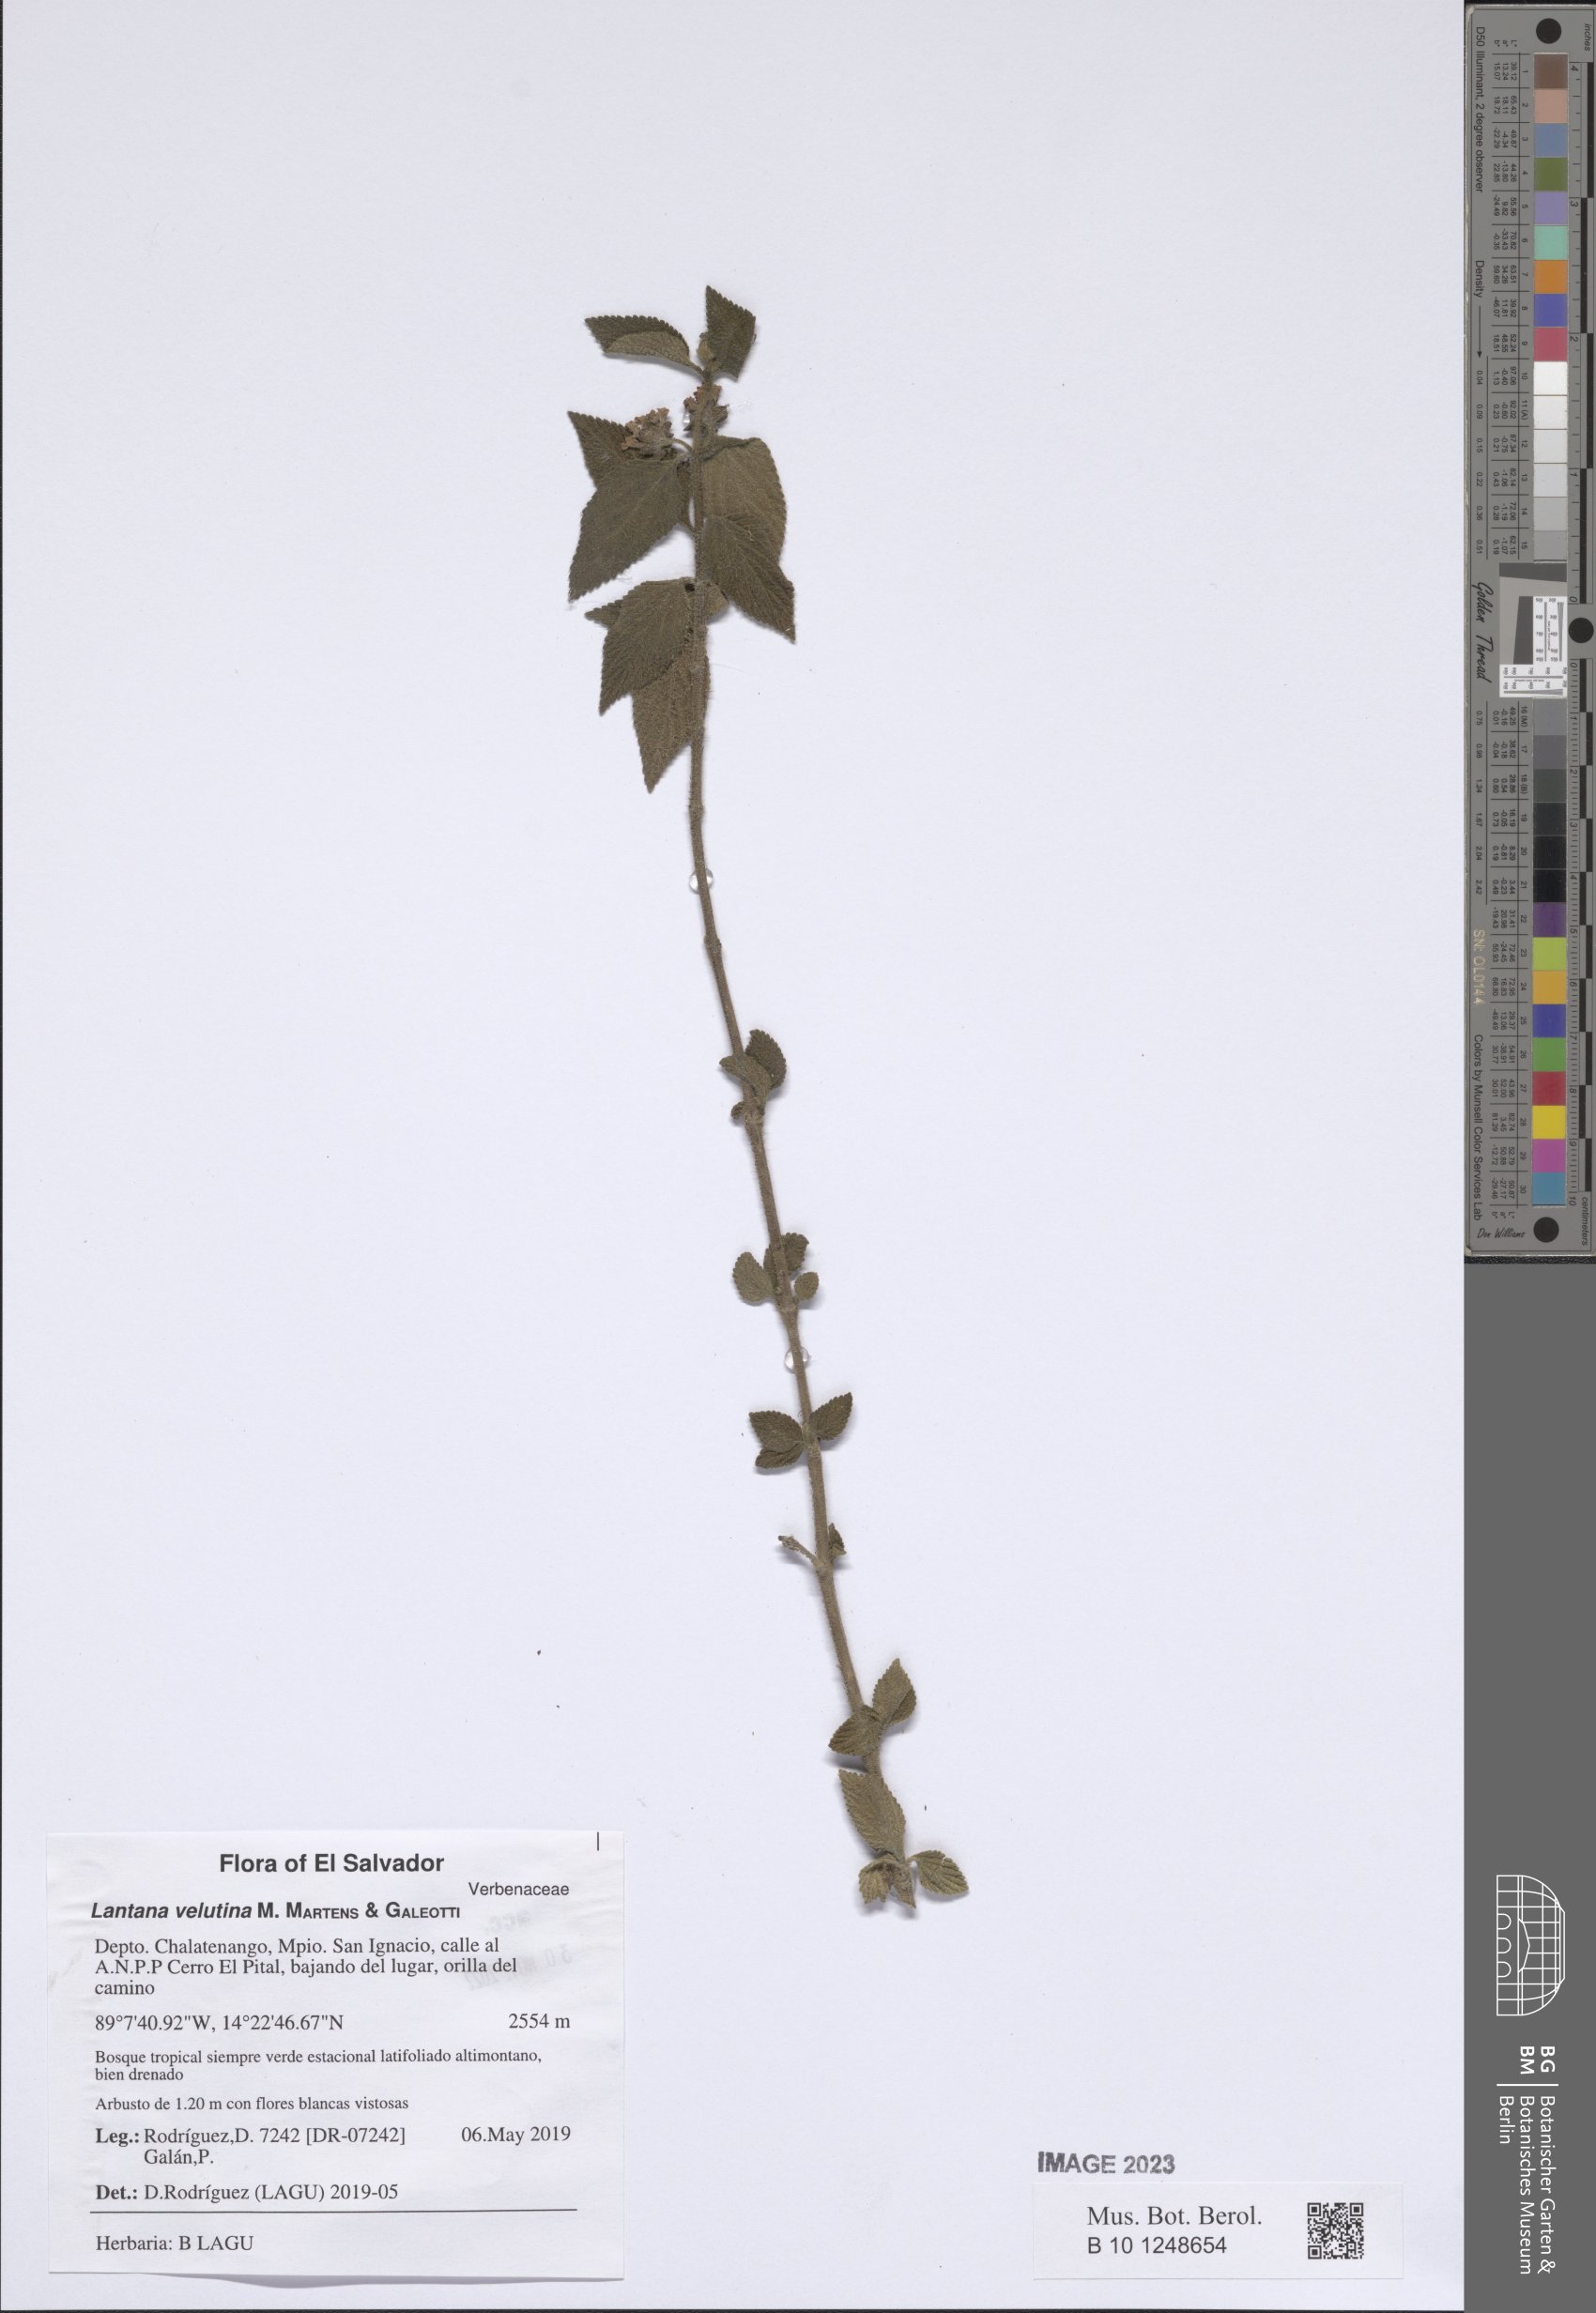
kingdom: Plantae
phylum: Tracheophyta
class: Magnoliopsida
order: Lamiales
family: Verbenaceae
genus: Lantana
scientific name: Lantana velutina
